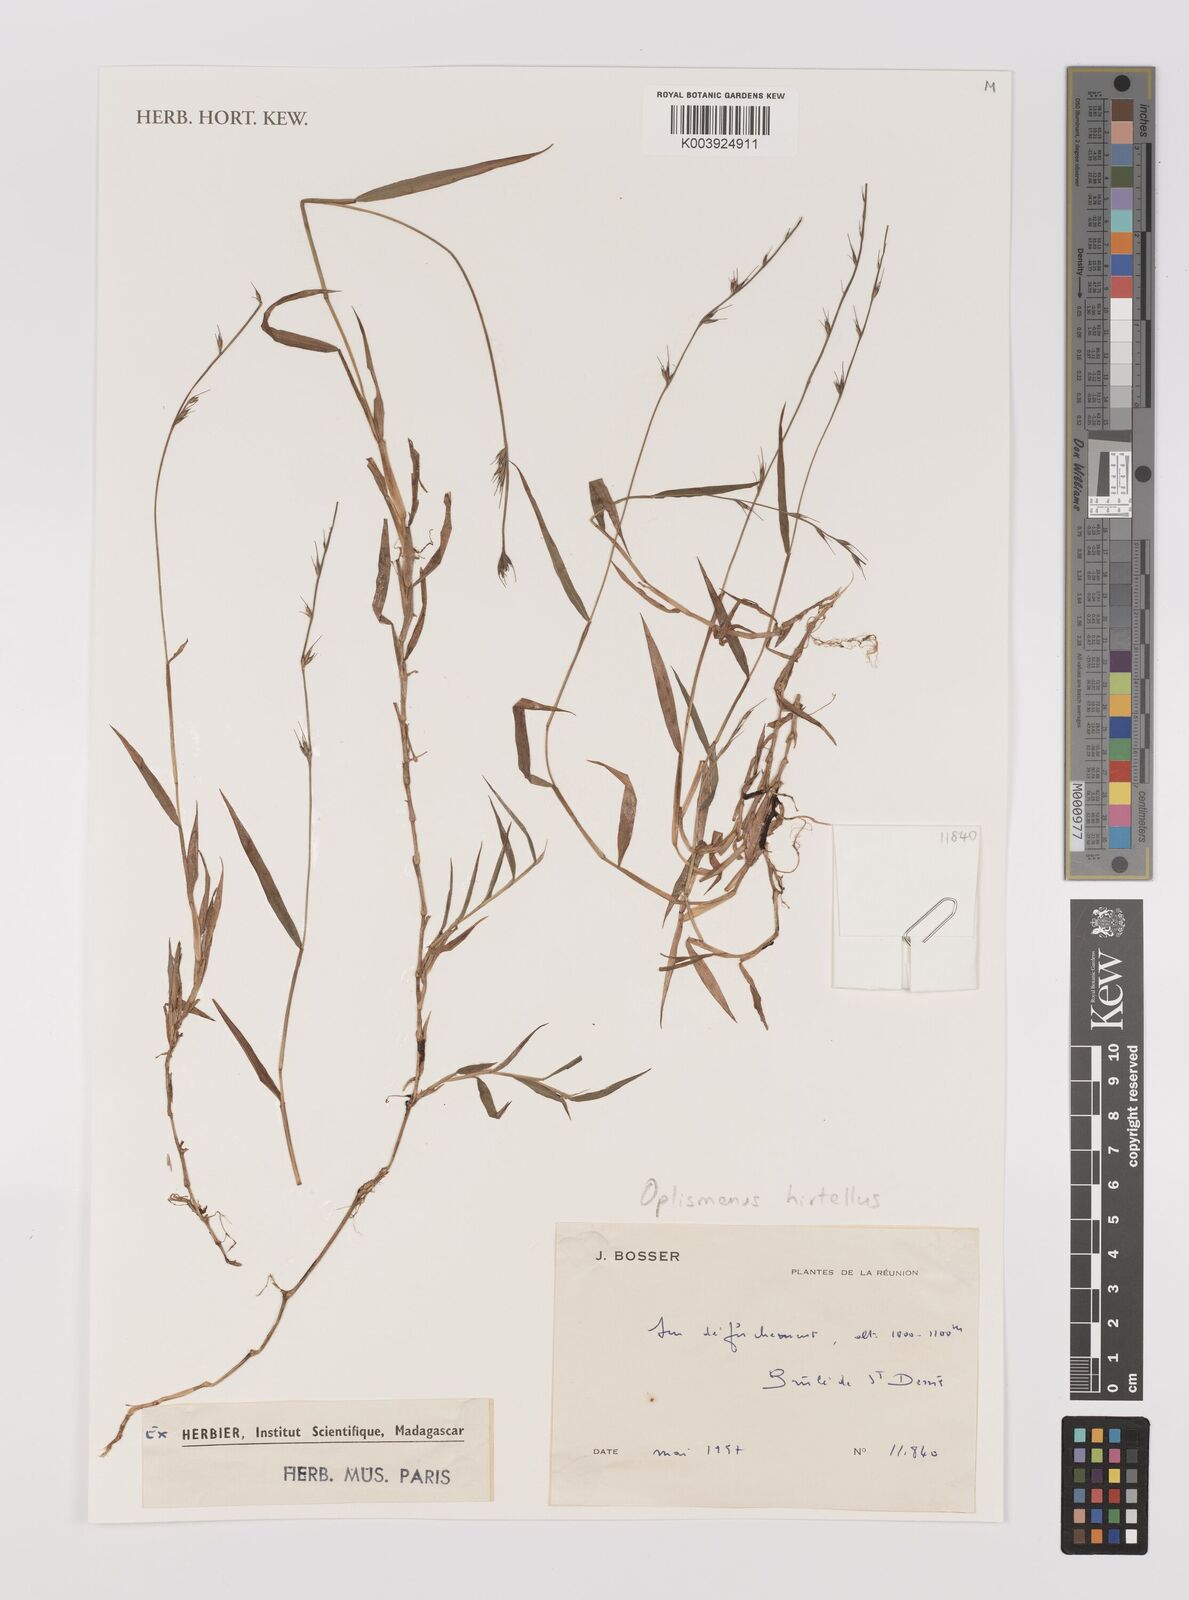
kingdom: Plantae
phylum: Tracheophyta
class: Liliopsida
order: Poales
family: Poaceae
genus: Oplismenus
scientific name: Oplismenus hirtellus
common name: Basketgrass
